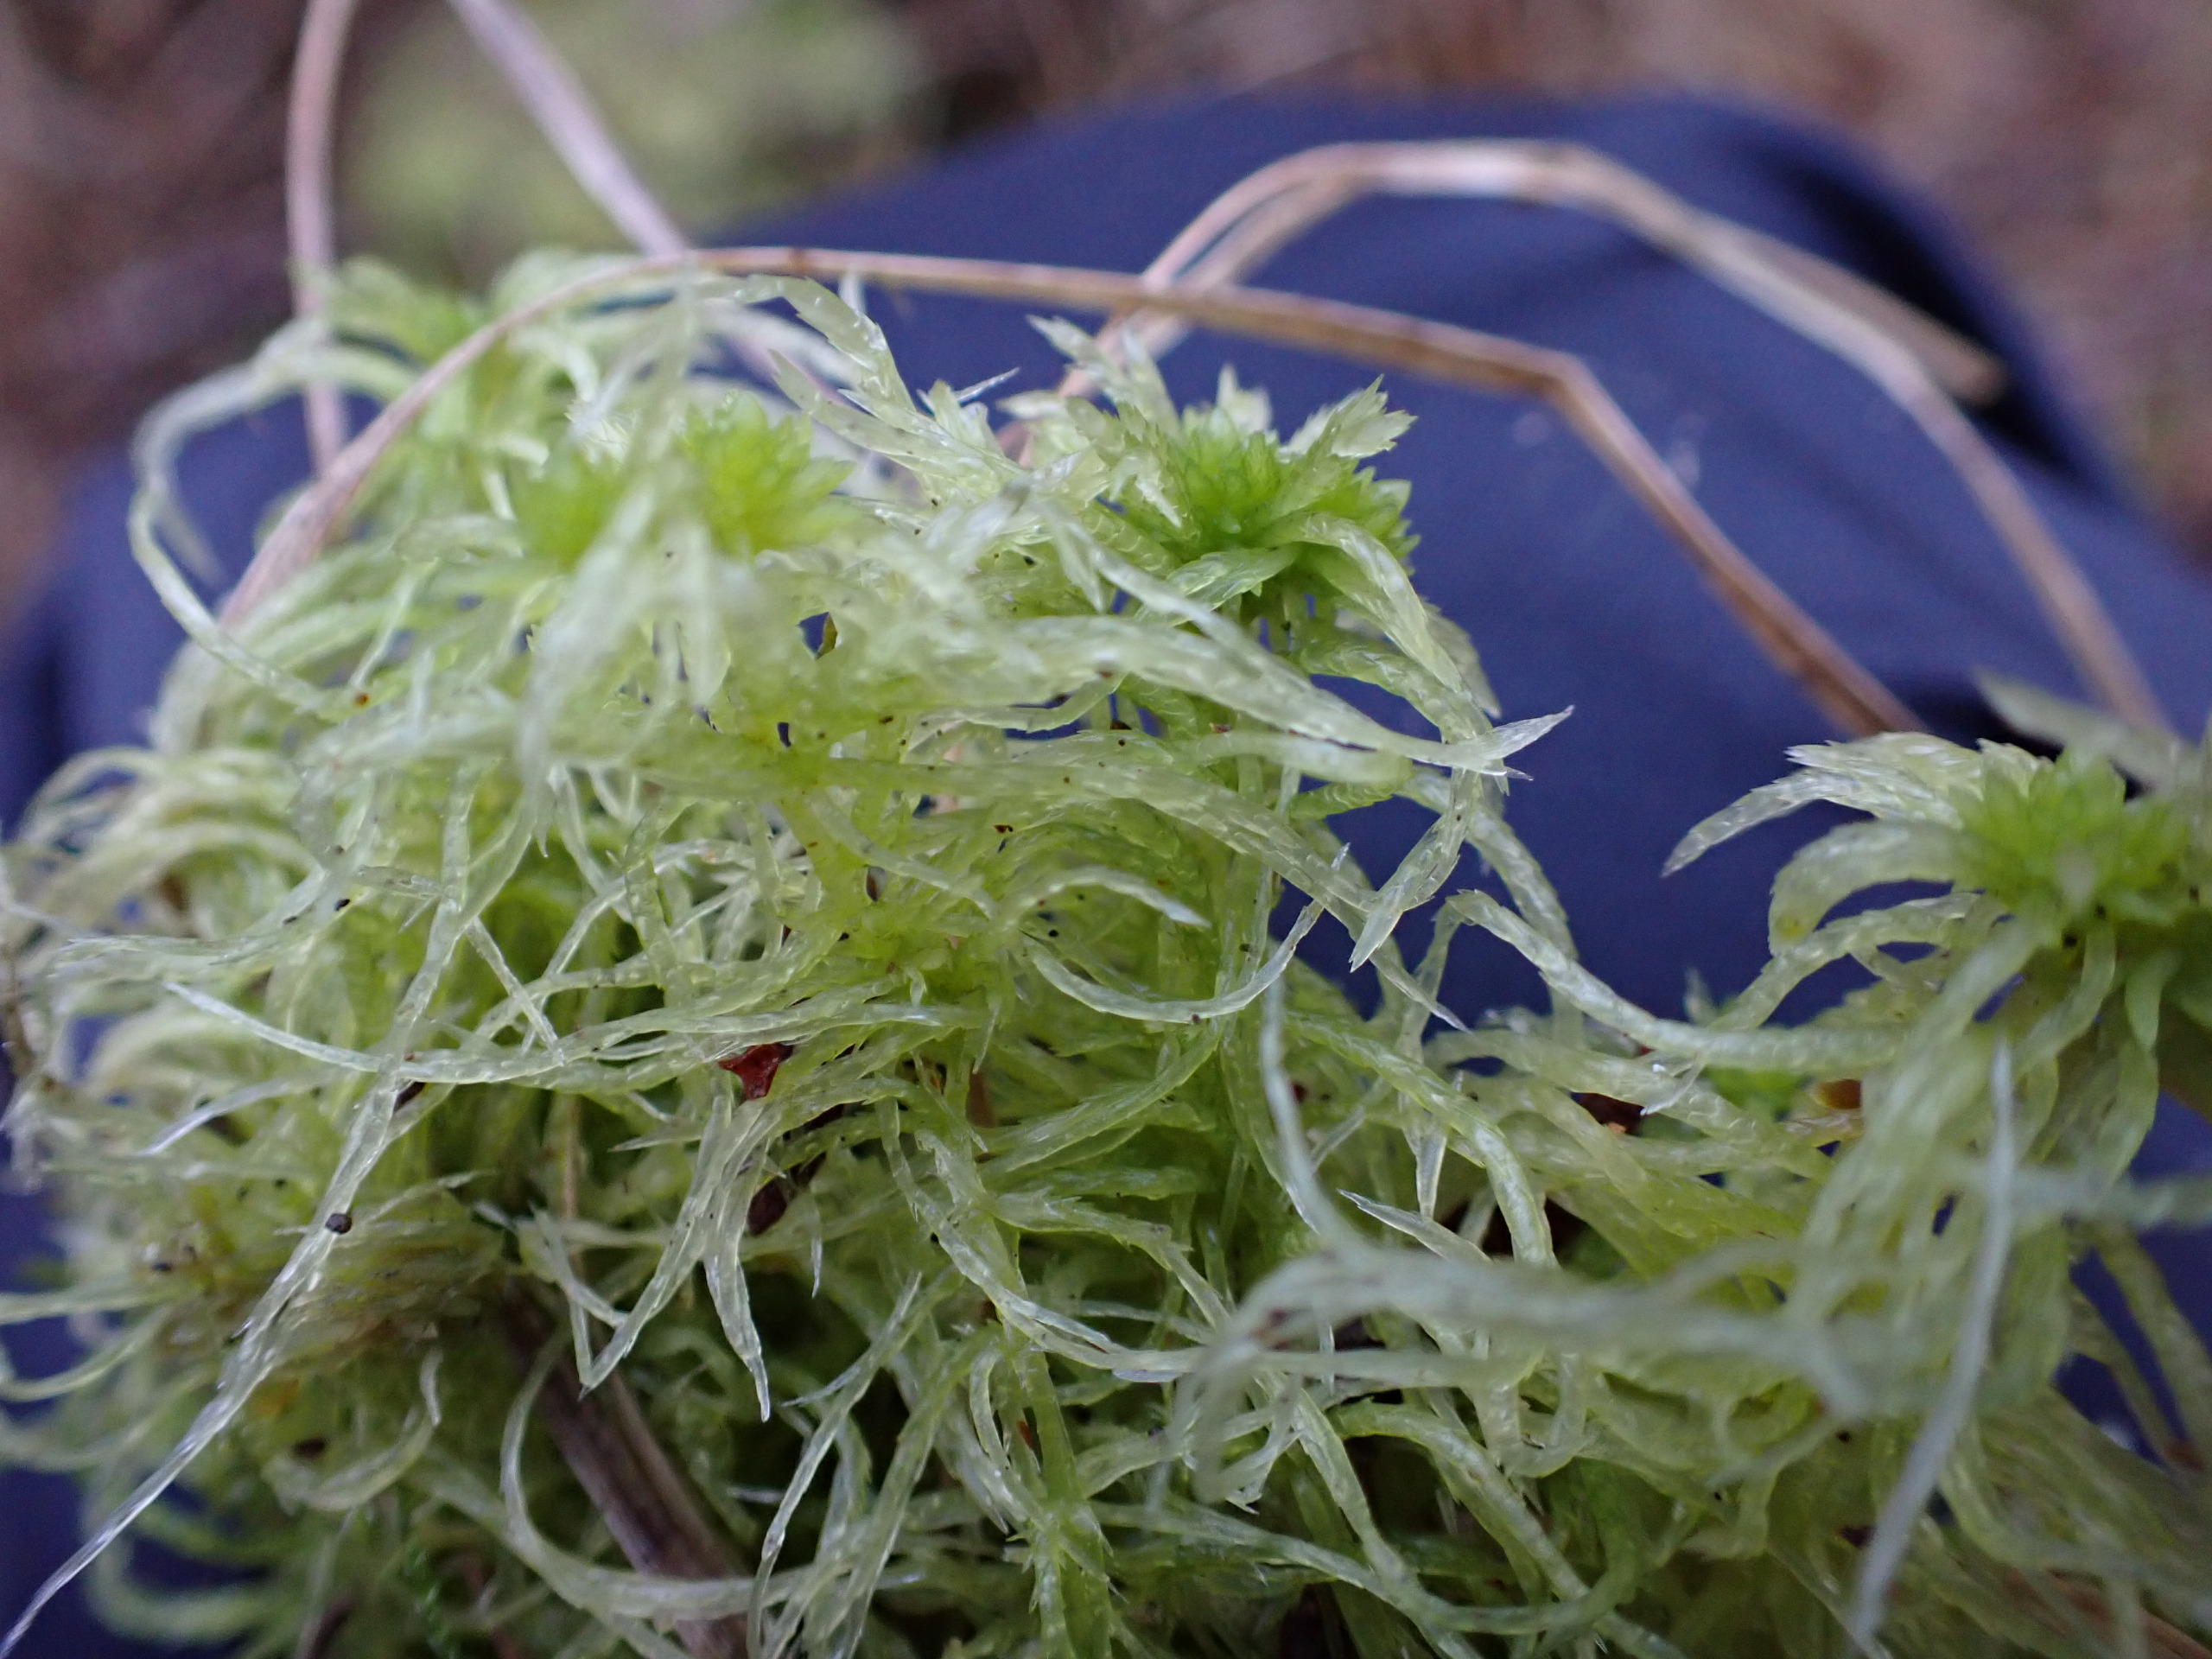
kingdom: Plantae
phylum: Bryophyta
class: Sphagnopsida
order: Sphagnales
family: Sphagnaceae
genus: Sphagnum
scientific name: Sphagnum fimbriatum
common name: Frynset tørvemos
